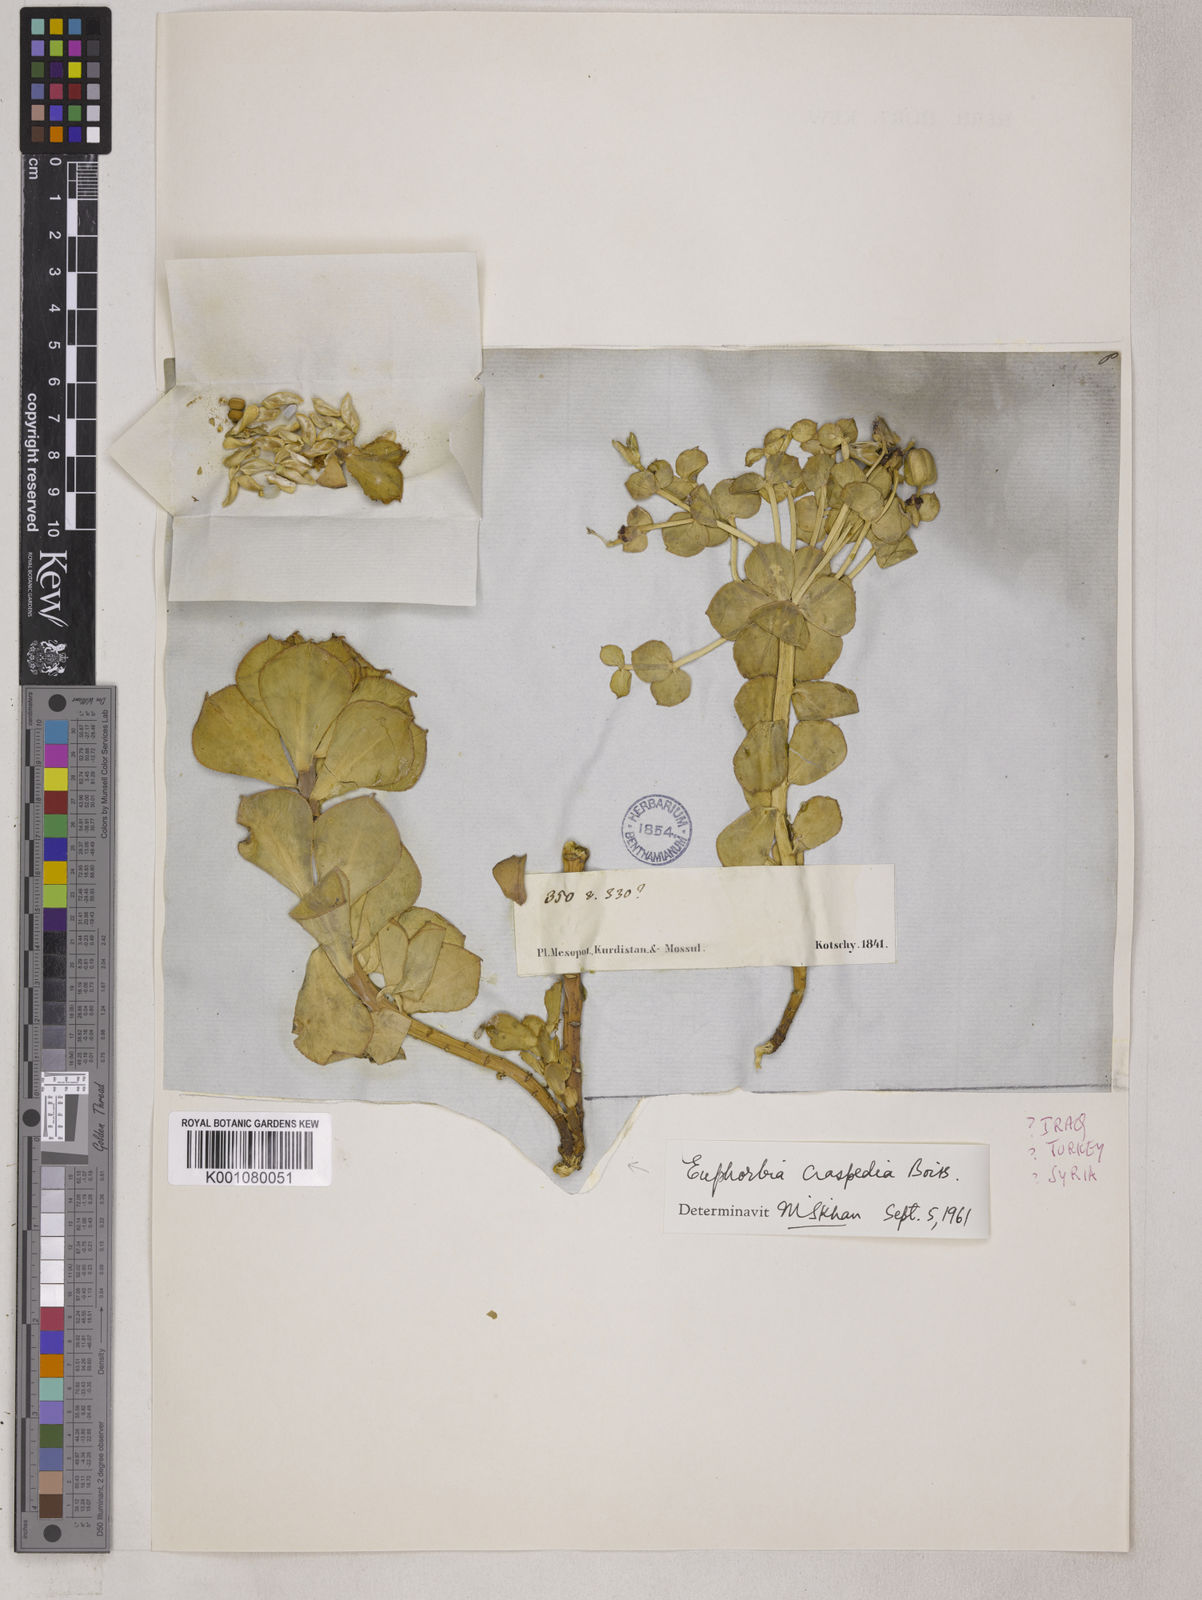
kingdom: Plantae
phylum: Tracheophyta
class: Magnoliopsida
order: Malpighiales
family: Euphorbiaceae
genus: Euphorbia
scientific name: Euphorbia craspedia
